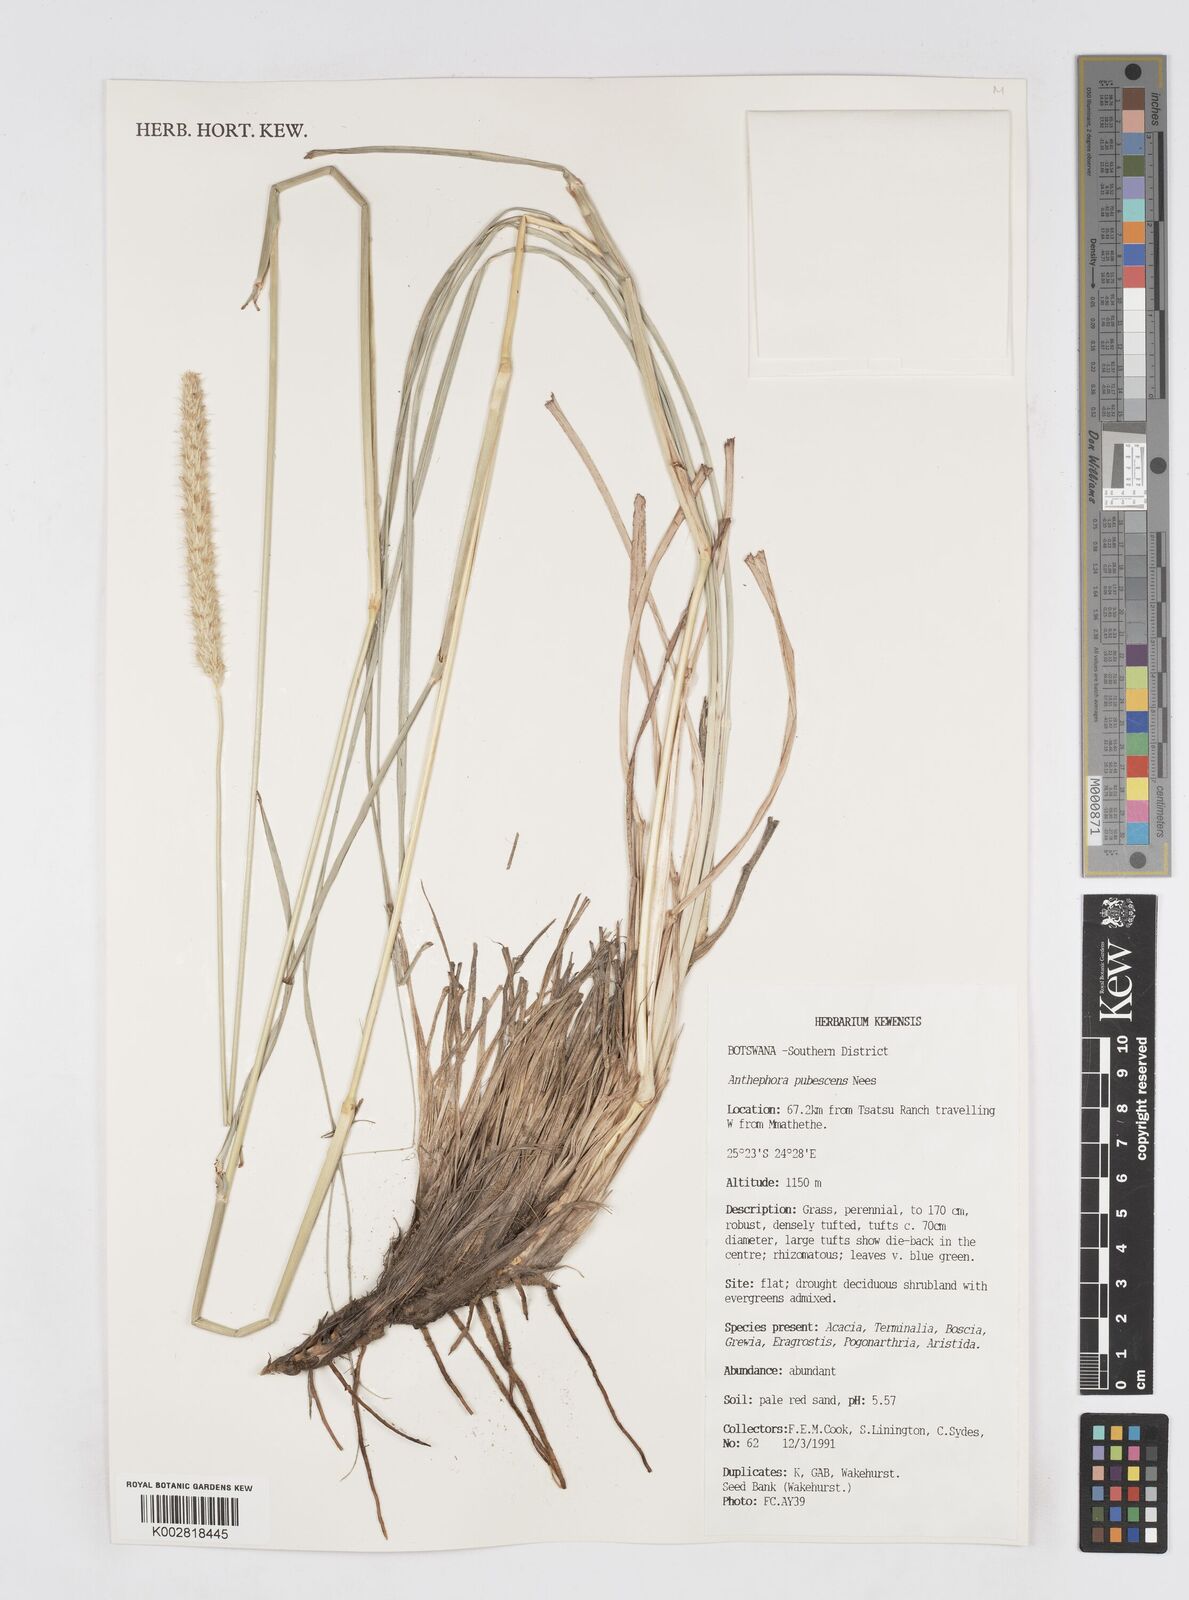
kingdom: Plantae
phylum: Tracheophyta
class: Liliopsida
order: Poales
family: Poaceae
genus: Anthephora
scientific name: Anthephora pubescens
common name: Wool grass
